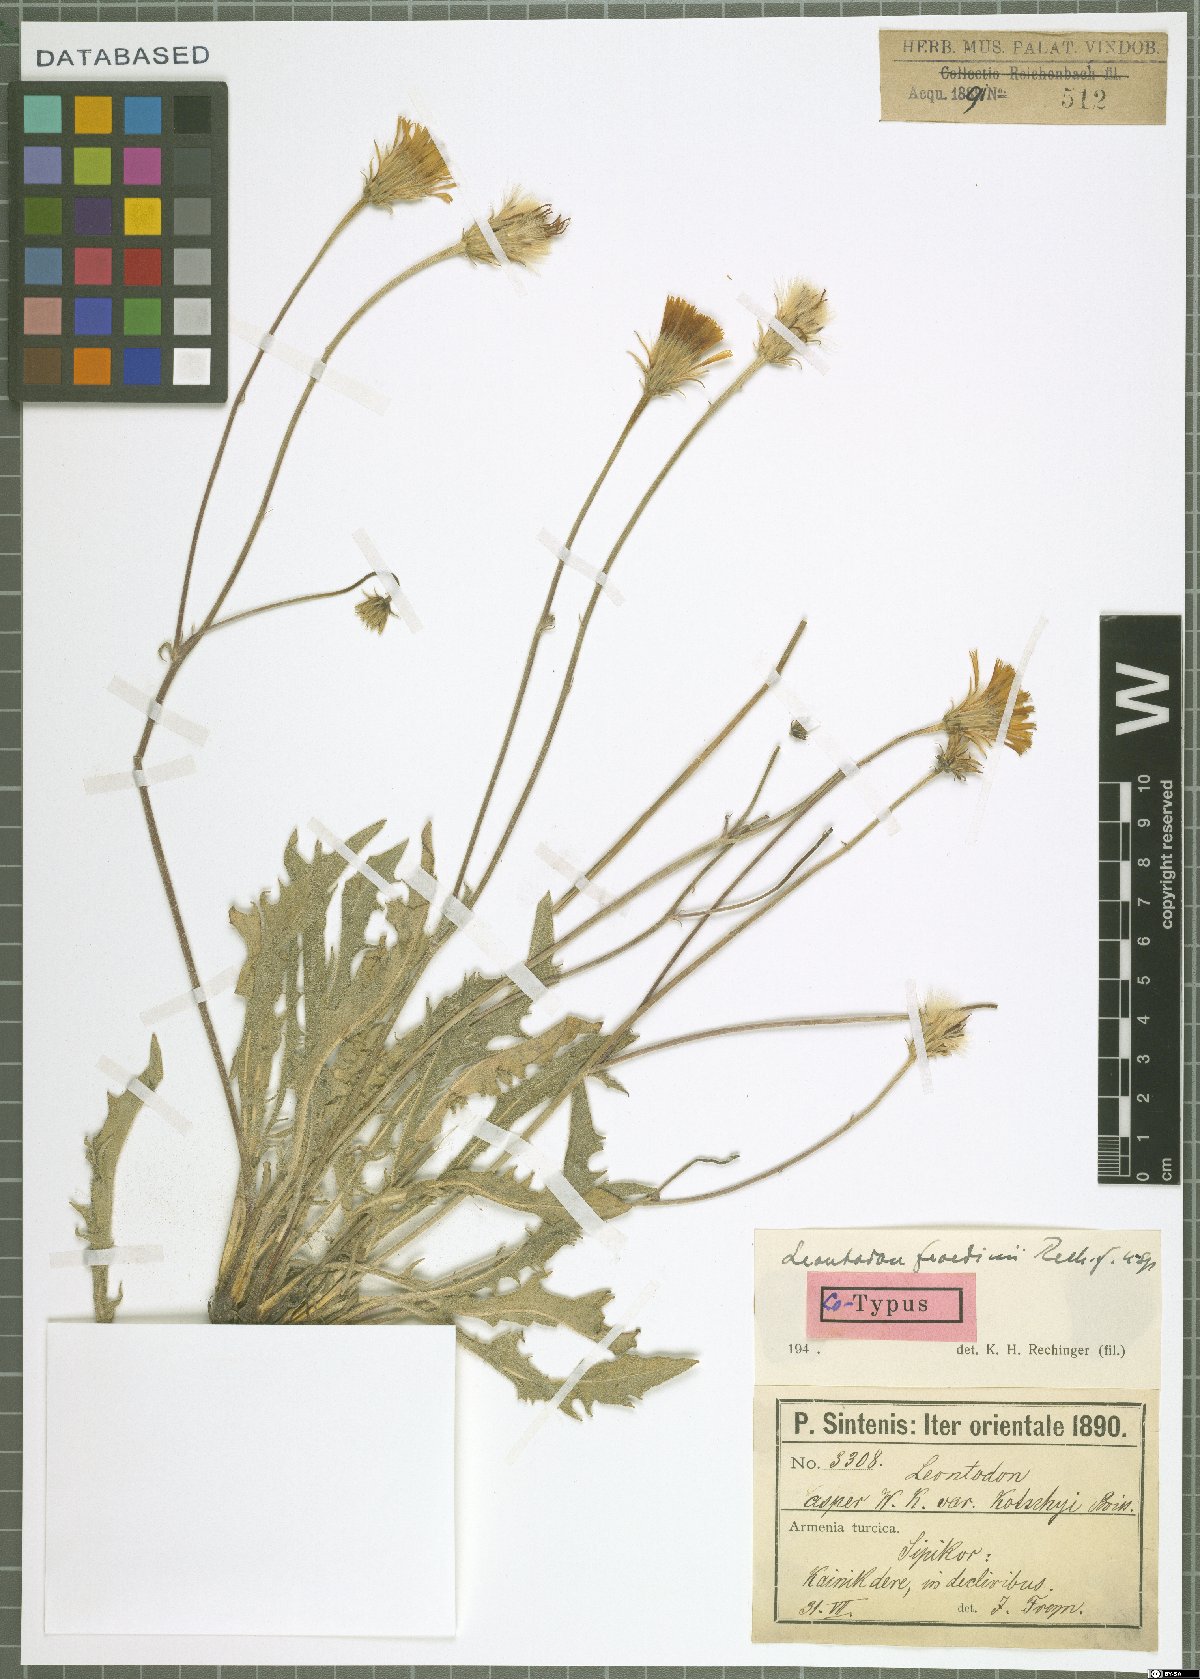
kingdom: Plantae
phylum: Tracheophyta
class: Magnoliopsida
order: Asterales
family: Asteraceae
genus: Leontodon
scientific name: Leontodon froedinii
